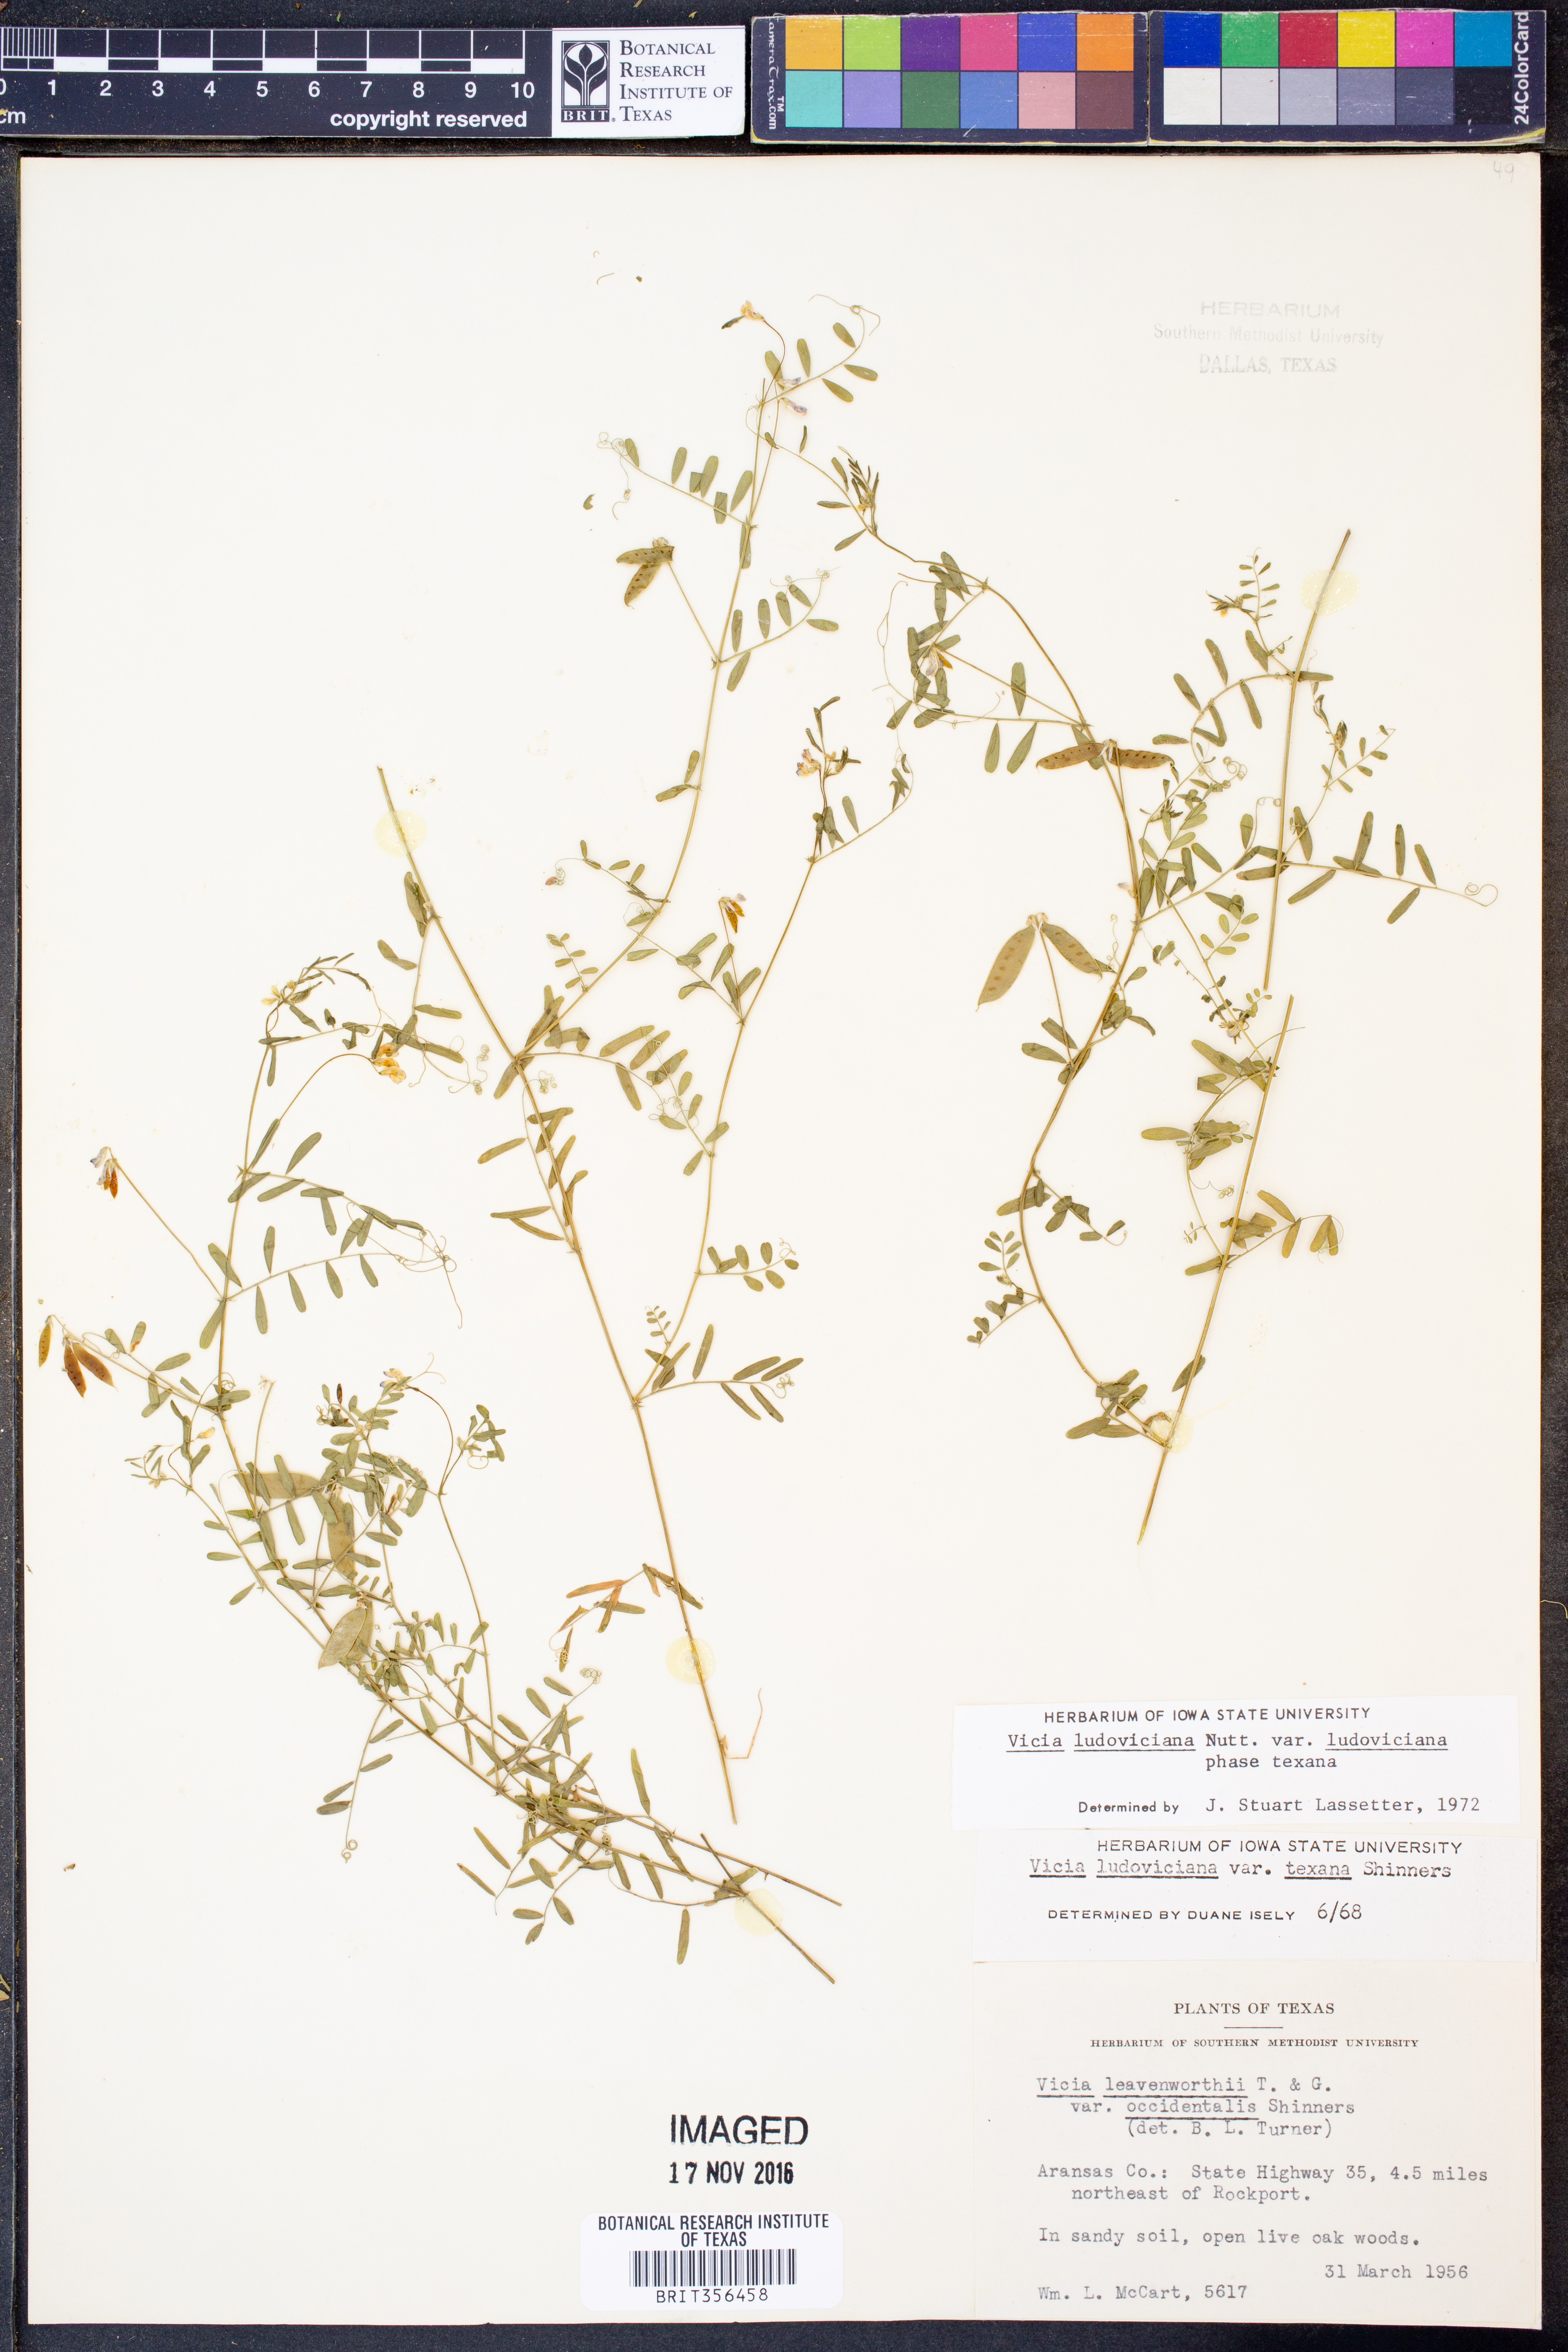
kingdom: Plantae
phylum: Tracheophyta
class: Magnoliopsida
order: Fabales
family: Fabaceae
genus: Vicia
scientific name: Vicia ludoviciana
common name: Louisiana vetch
